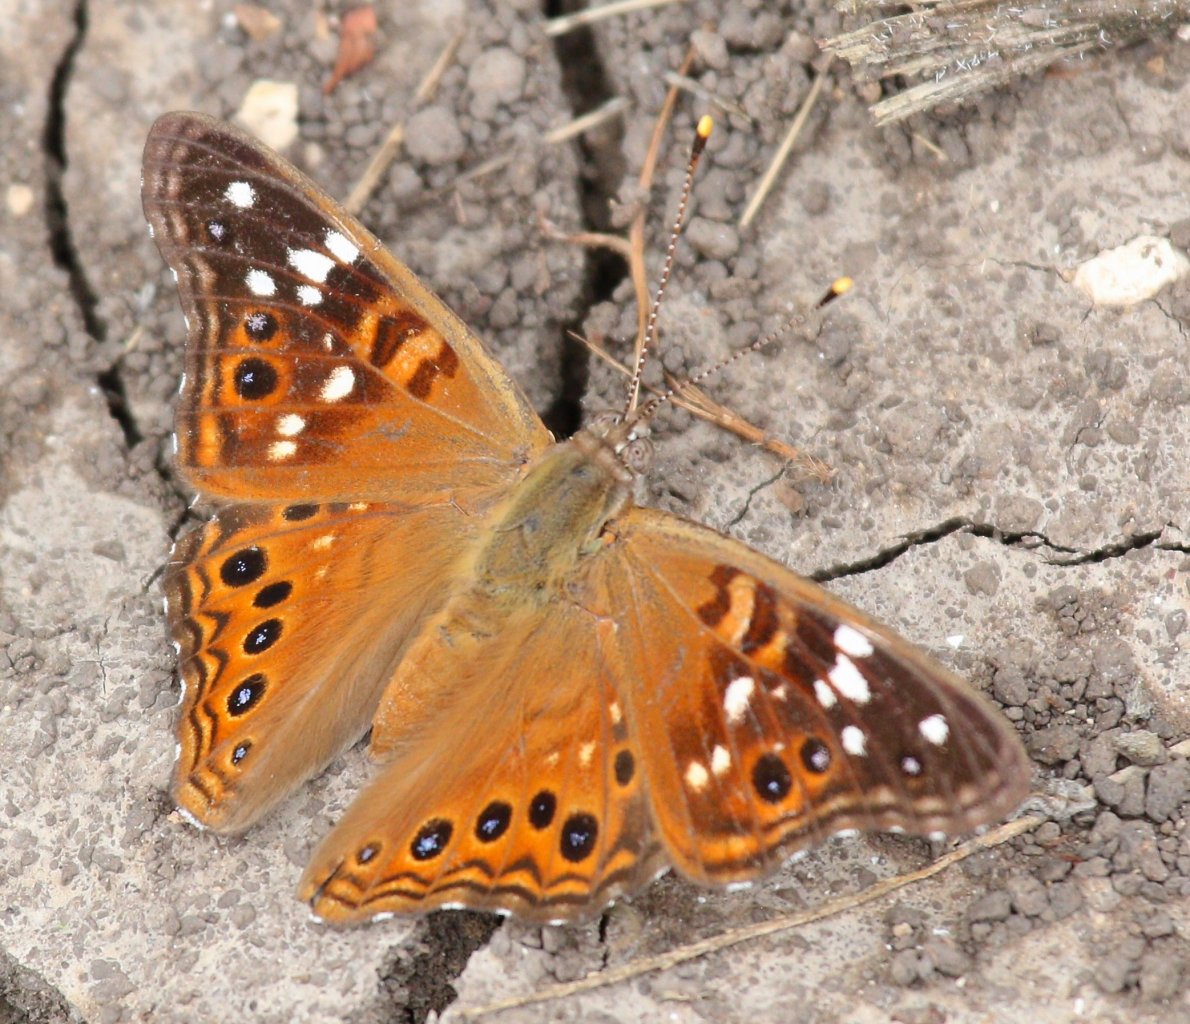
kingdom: Animalia
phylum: Arthropoda
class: Insecta
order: Lepidoptera
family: Nymphalidae
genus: Asterocampa
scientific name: Asterocampa leilia
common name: Empress Leilia
